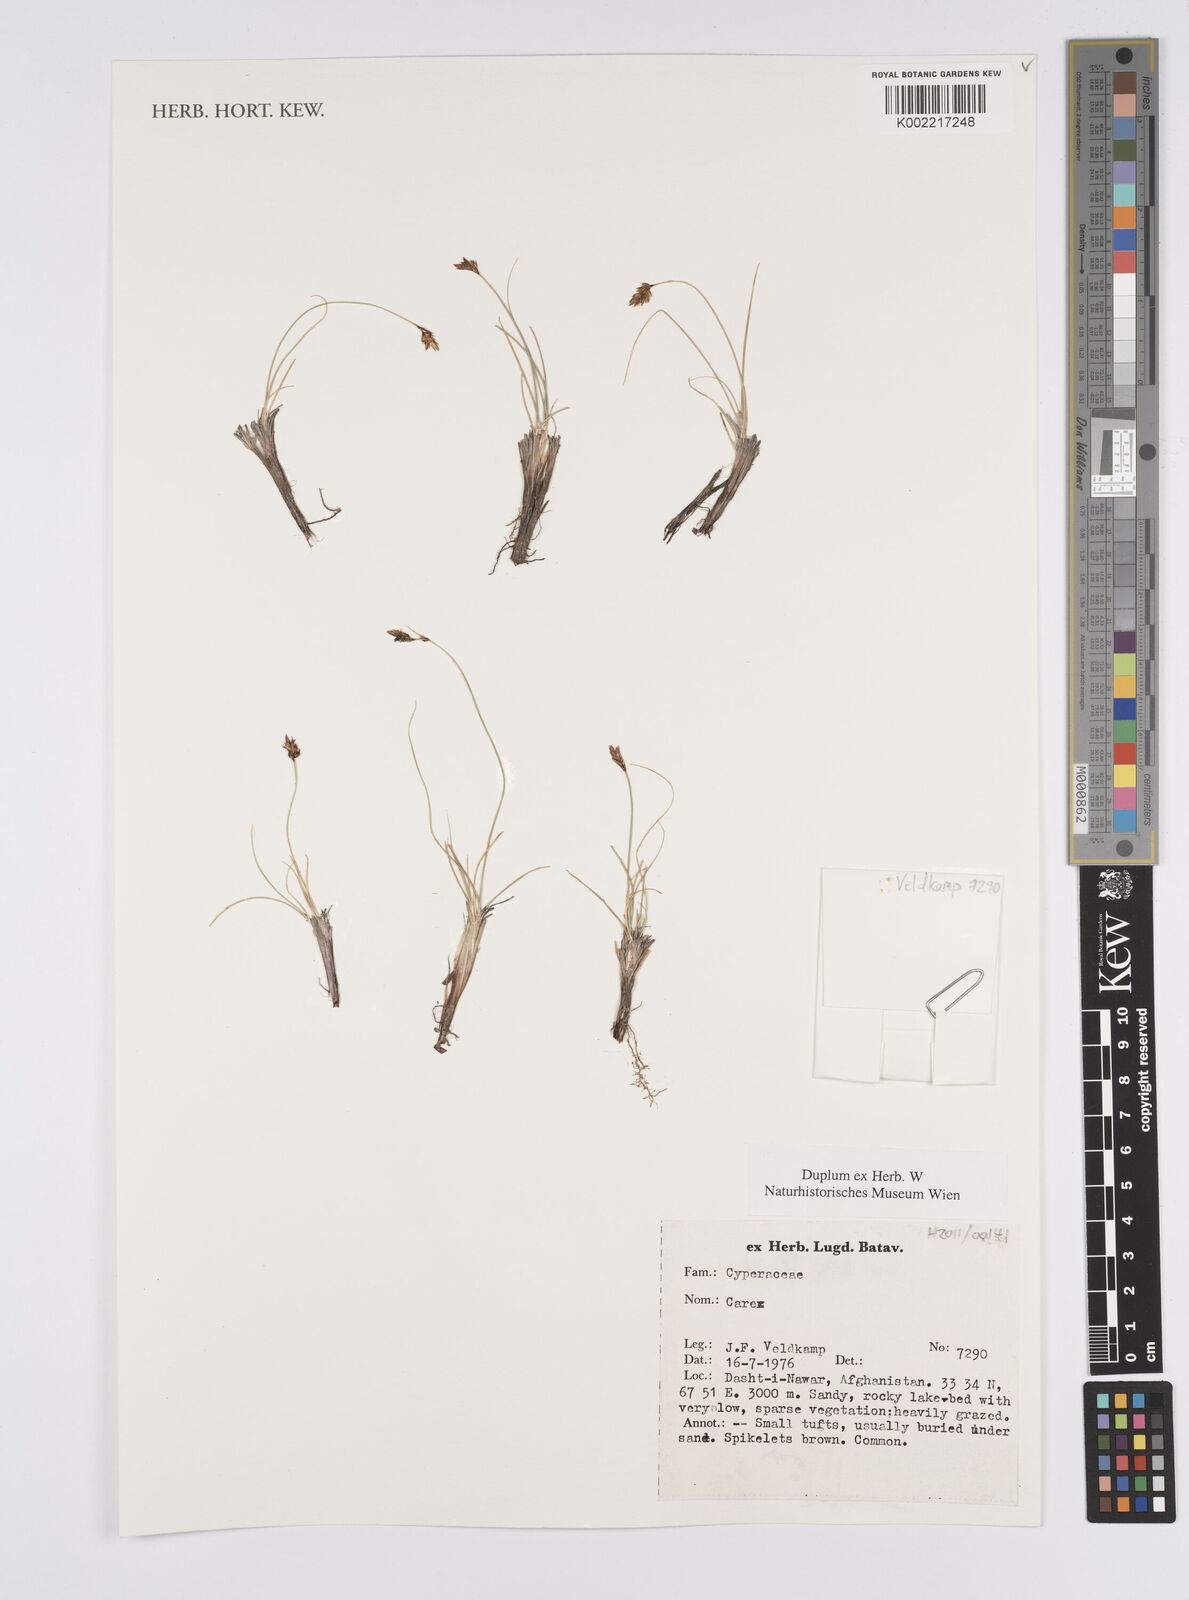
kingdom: Plantae
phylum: Tracheophyta
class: Liliopsida
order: Poales
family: Cyperaceae
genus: Carex
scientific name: Carex
